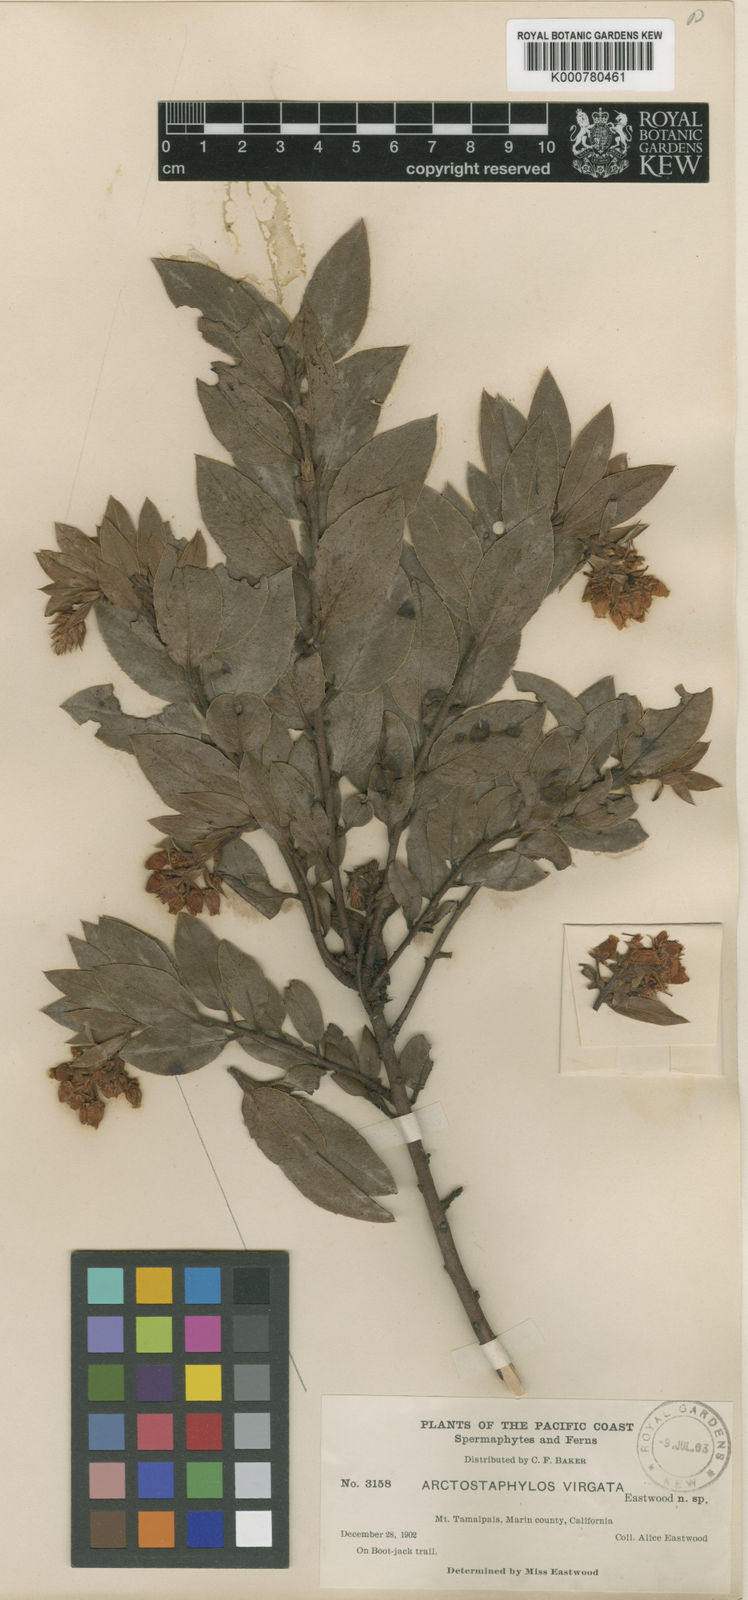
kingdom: Plantae
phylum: Tracheophyta
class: Magnoliopsida
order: Ericales
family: Ericaceae
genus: Arctostaphylos
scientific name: Arctostaphylos
